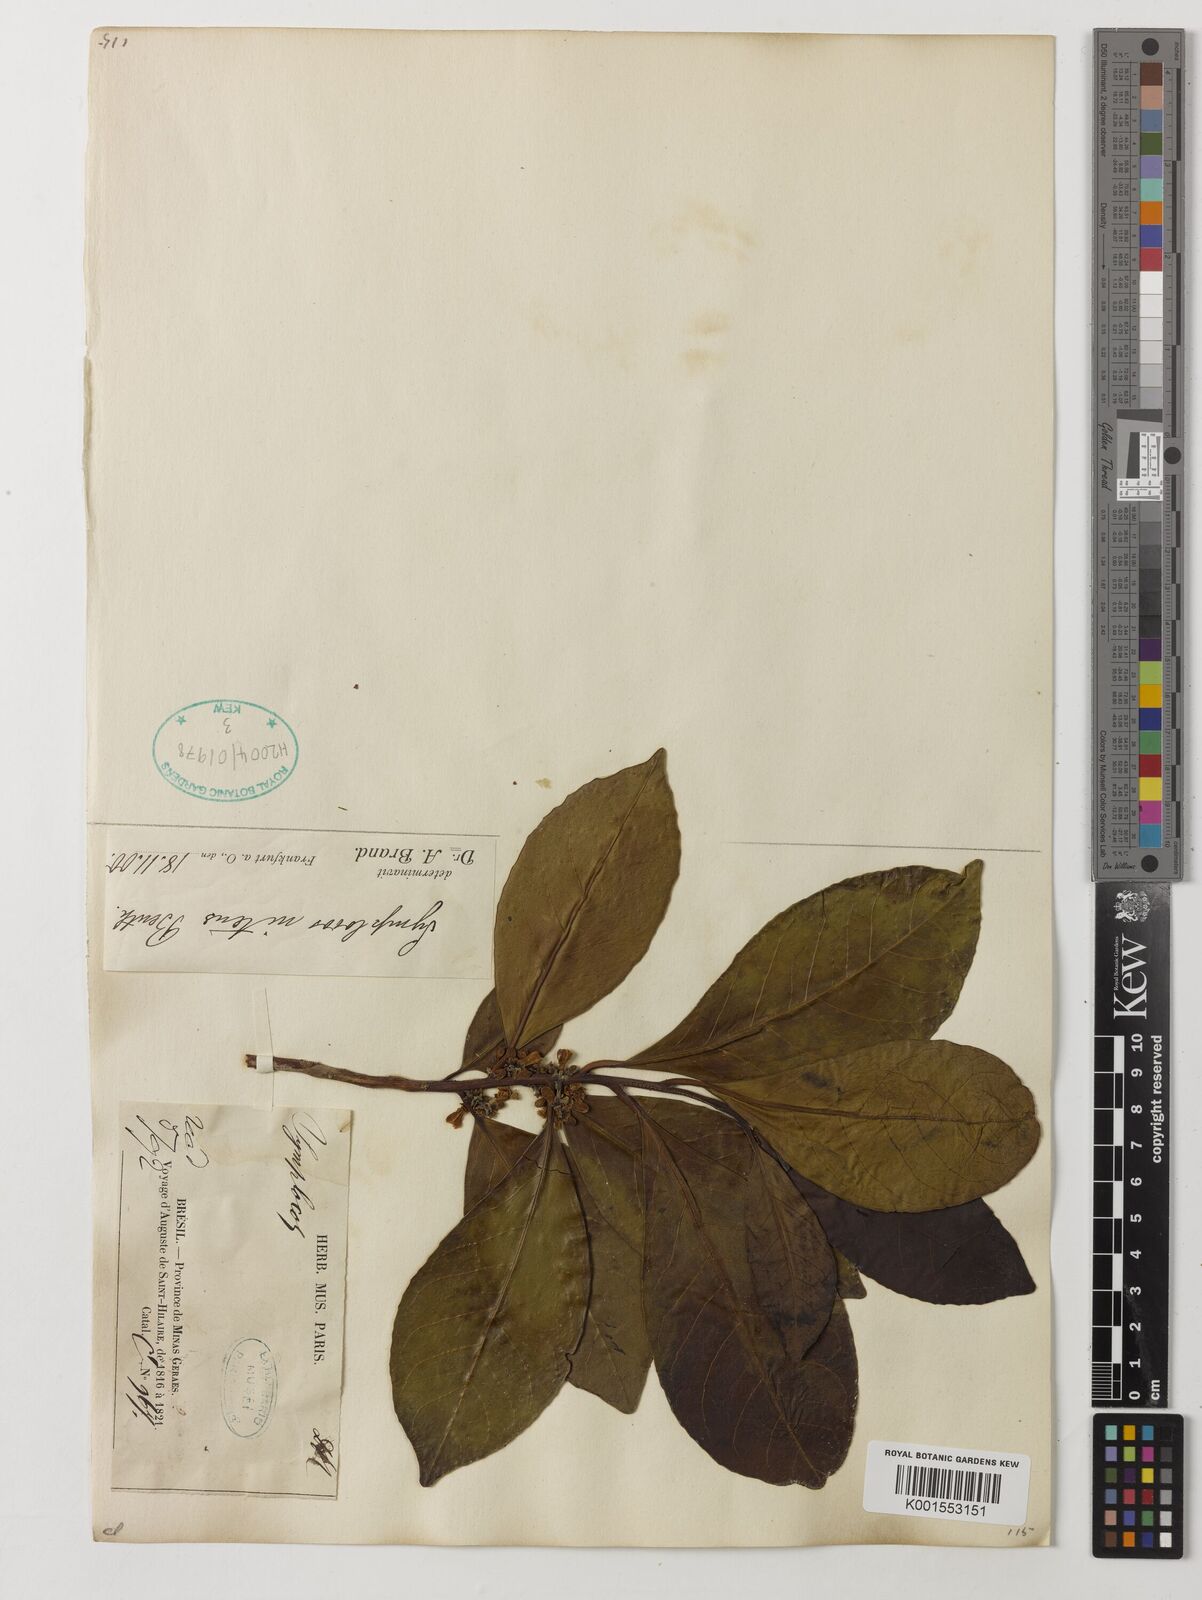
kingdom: Plantae
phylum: Tracheophyta
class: Magnoliopsida
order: Ericales
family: Symplocaceae
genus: Symplocos
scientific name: Symplocos nitens
